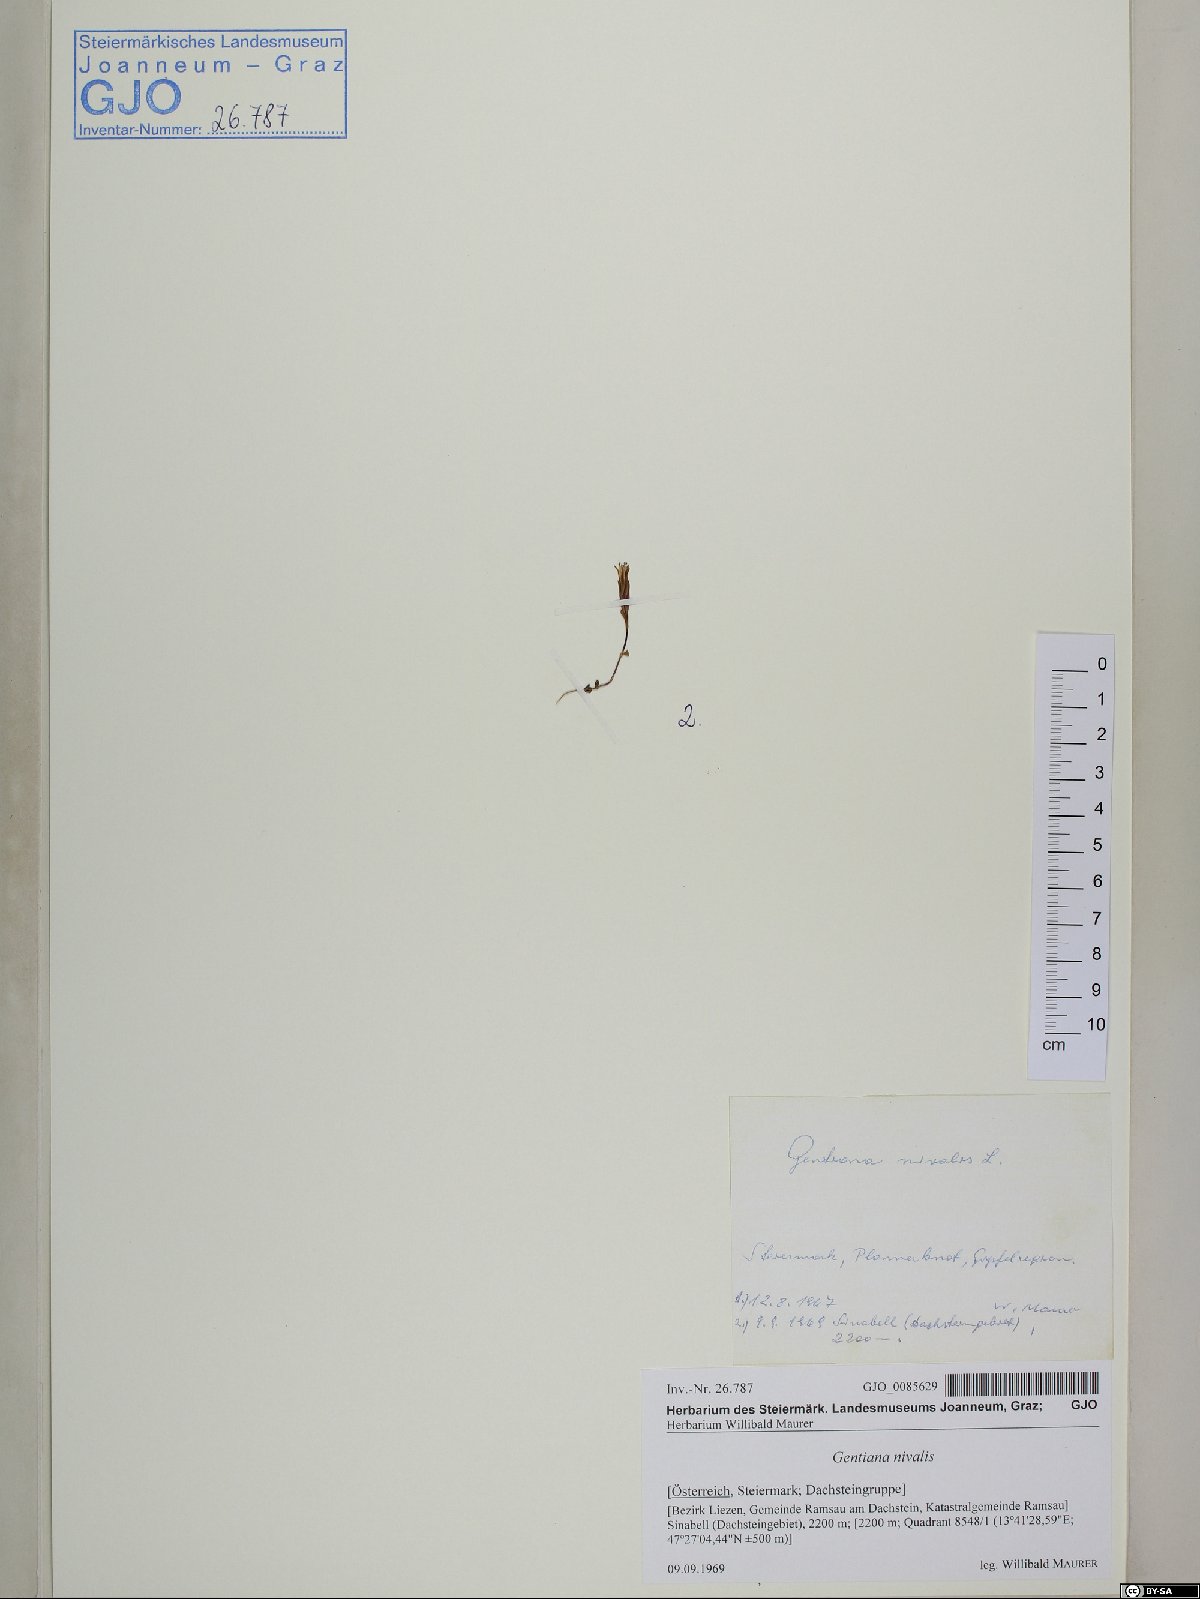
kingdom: Plantae
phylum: Tracheophyta
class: Magnoliopsida
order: Gentianales
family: Gentianaceae
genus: Gentiana
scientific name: Gentiana nivalis
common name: Alpine gentian
